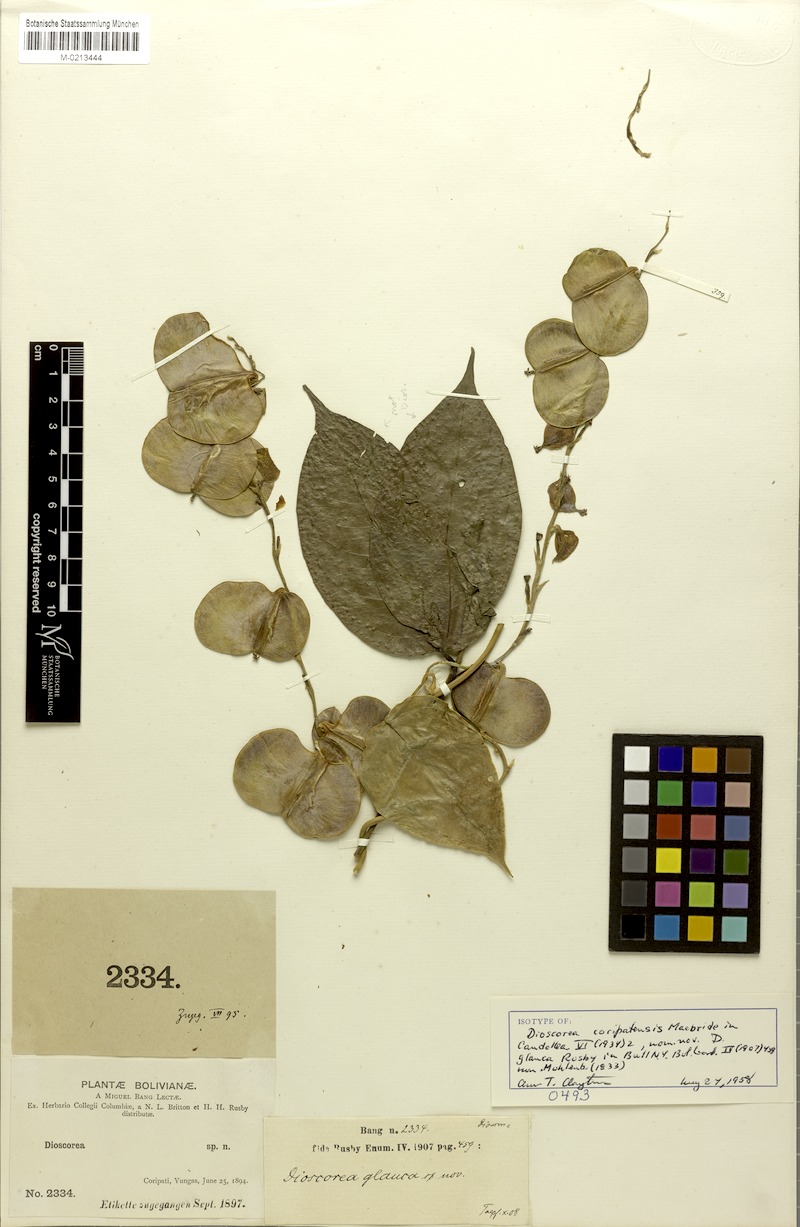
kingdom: Plantae
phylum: Tracheophyta
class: Liliopsida
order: Dioscoreales
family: Dioscoreaceae
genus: Dioscorea
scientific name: Dioscorea glauca
